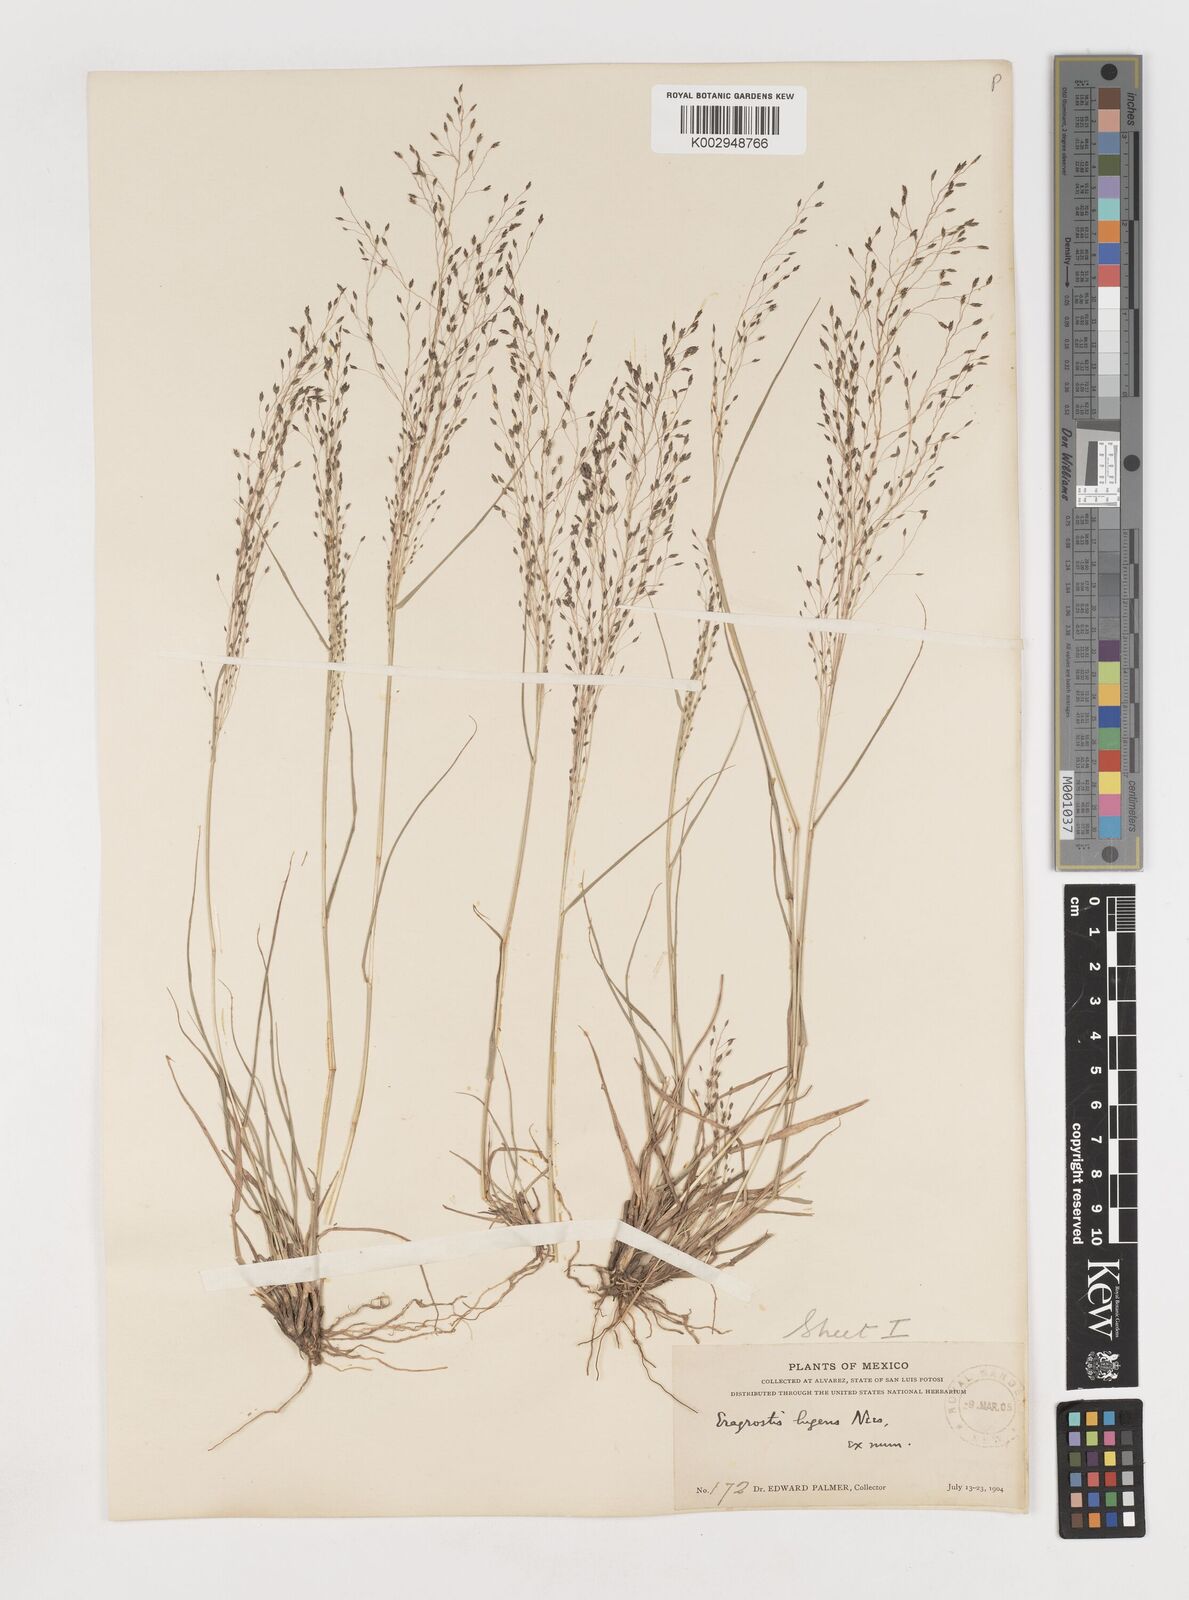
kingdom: Plantae
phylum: Tracheophyta
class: Liliopsida
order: Poales
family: Poaceae
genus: Eragrostis
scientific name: Eragrostis
